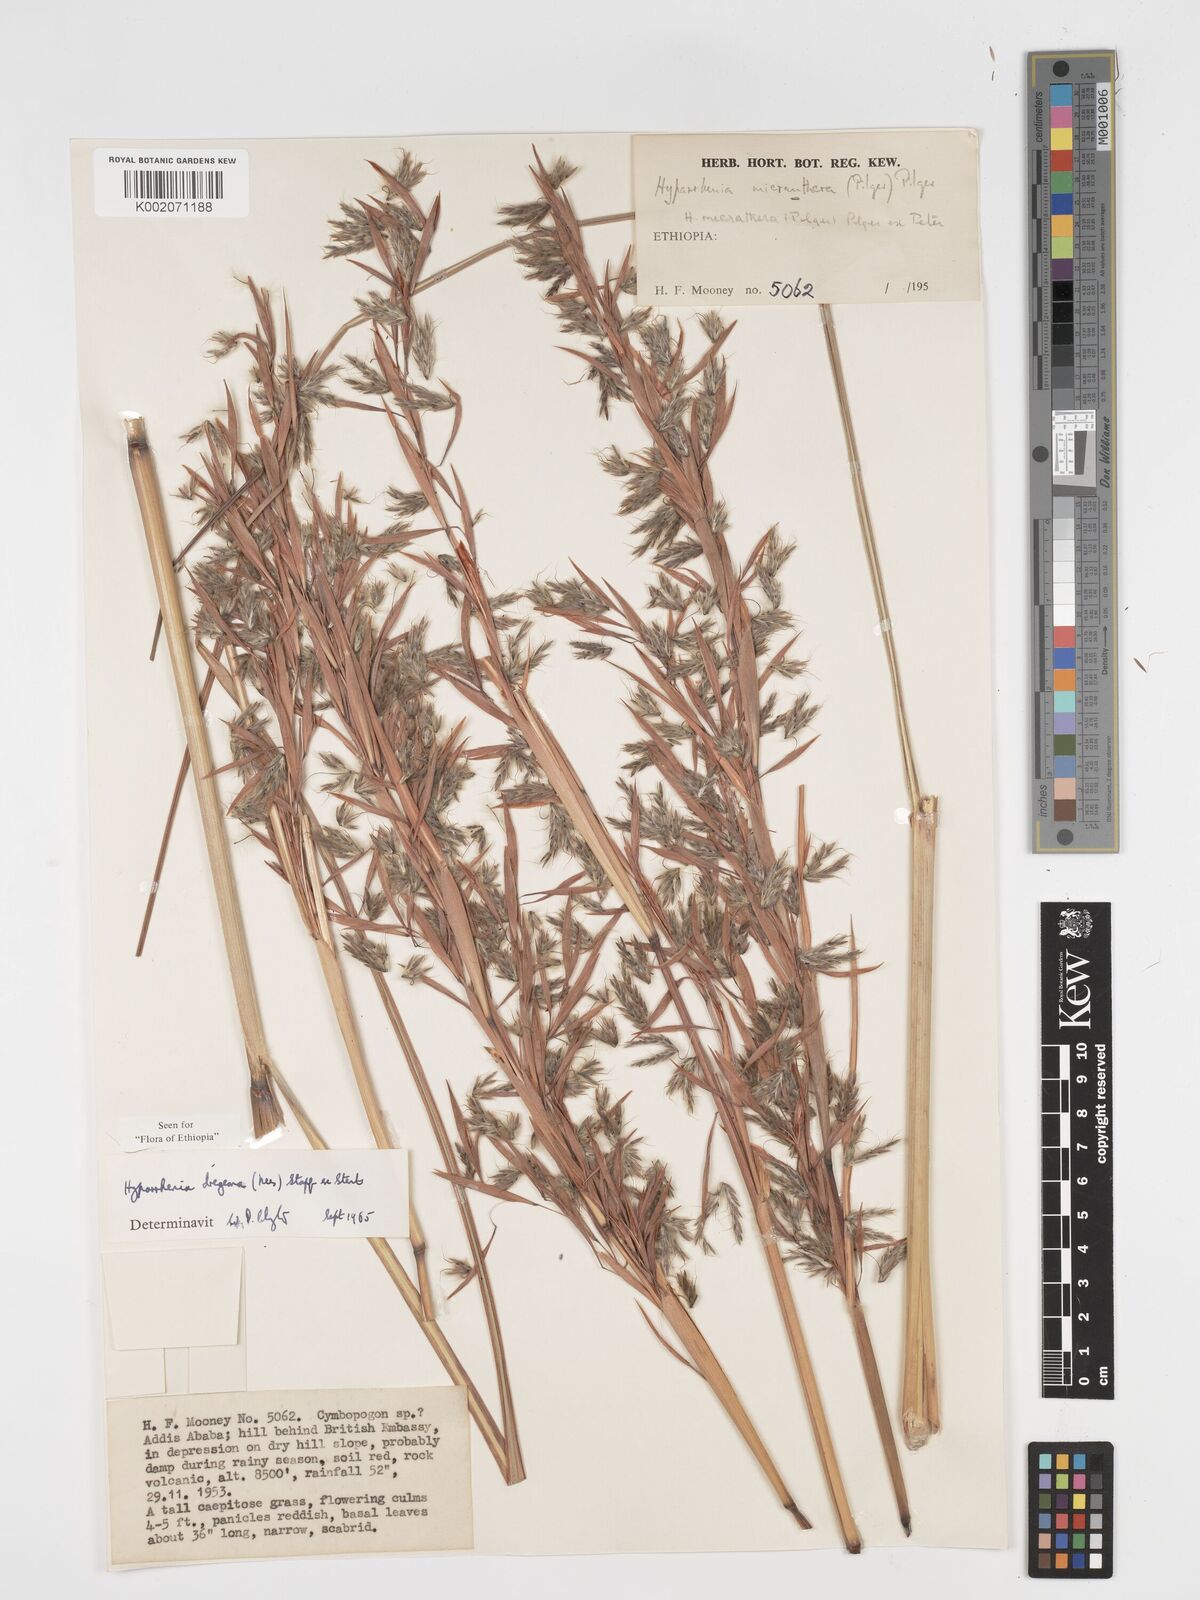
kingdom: Plantae
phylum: Tracheophyta
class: Liliopsida
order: Poales
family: Poaceae
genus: Hyparrhenia
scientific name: Hyparrhenia dregeana
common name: Silky thatching grass
